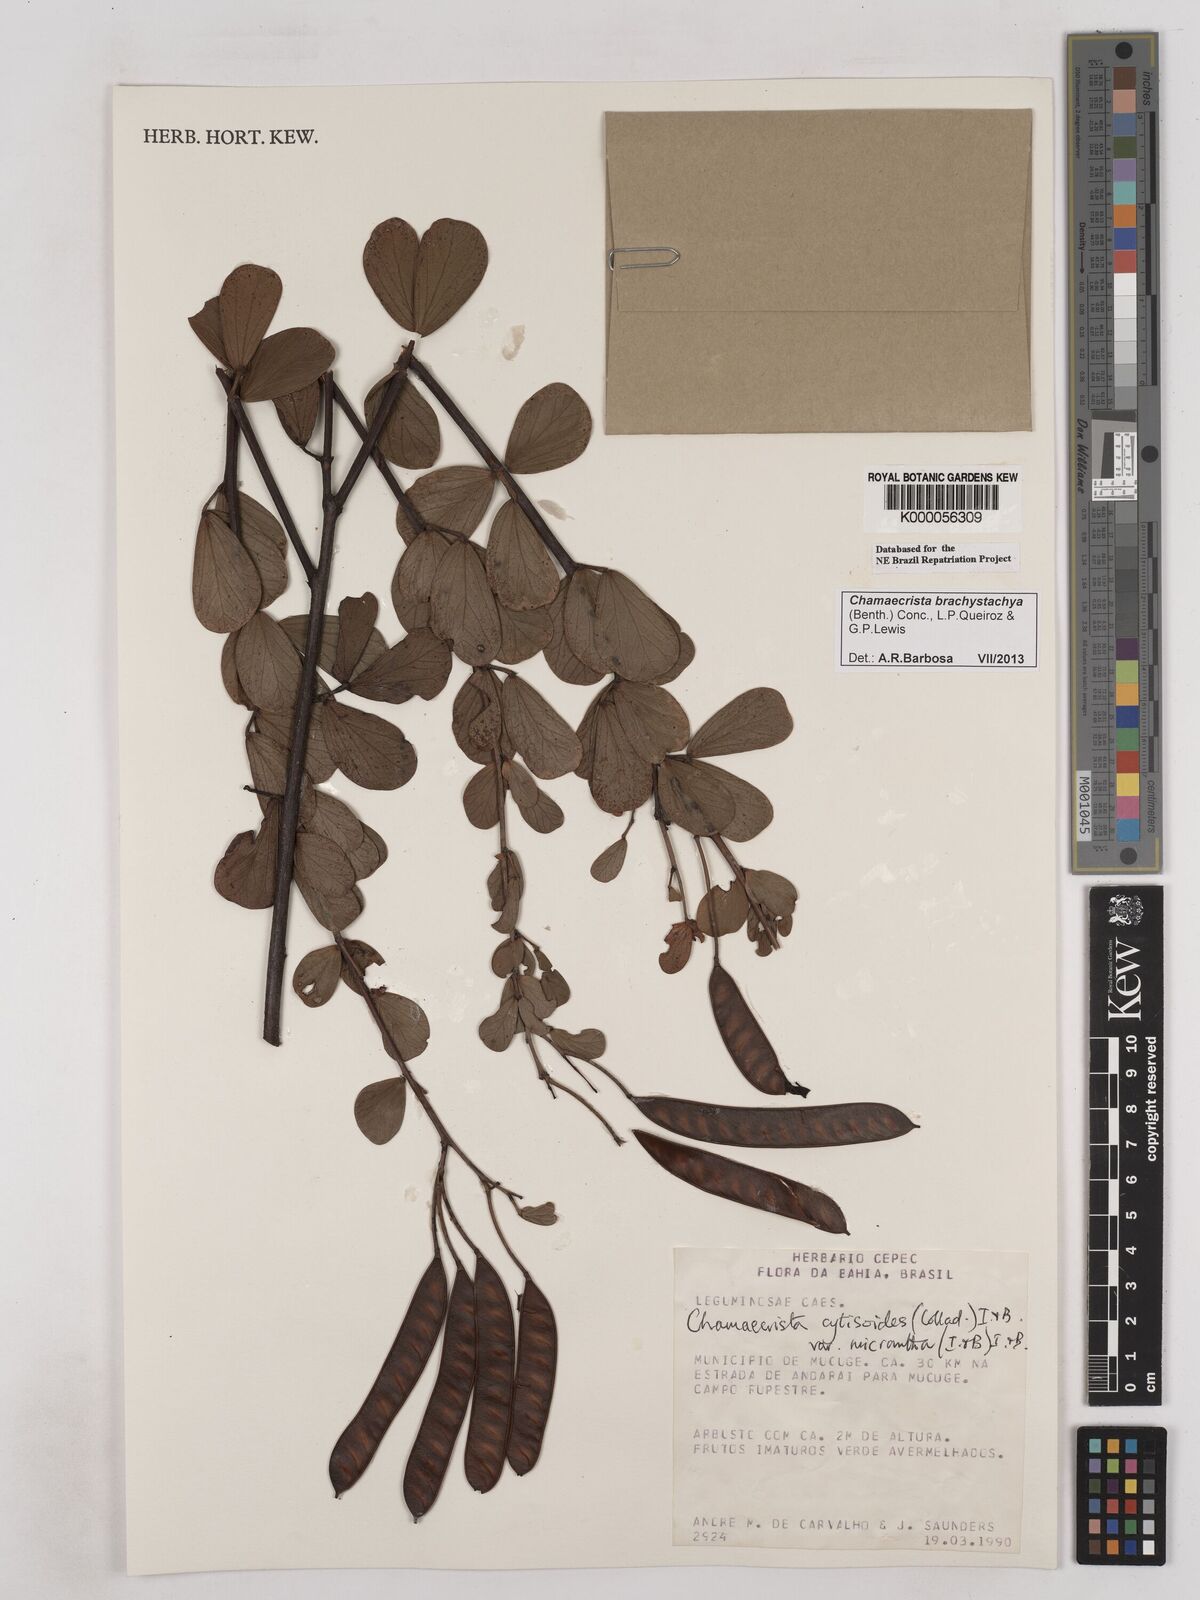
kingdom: Plantae
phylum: Tracheophyta
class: Magnoliopsida
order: Fabales
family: Fabaceae
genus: Chamaecrista
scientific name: Chamaecrista cytisoides
